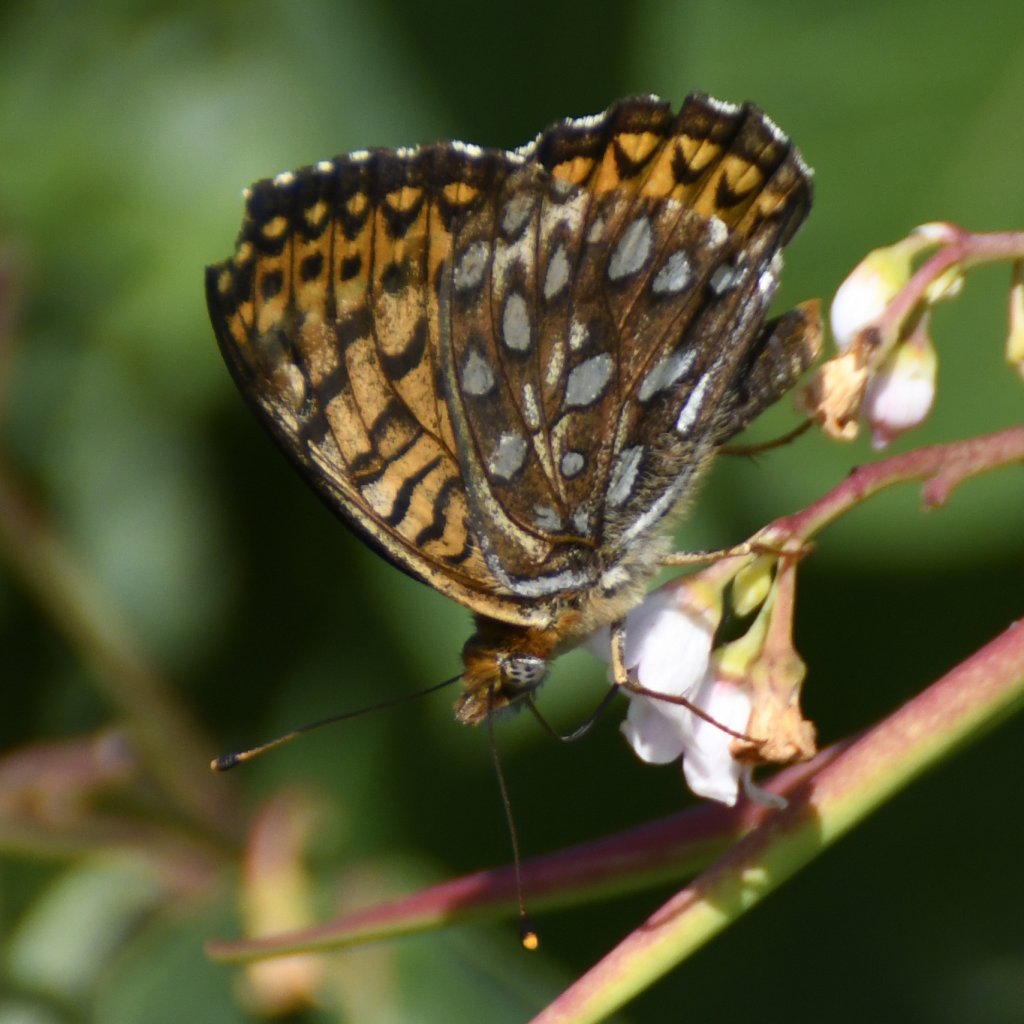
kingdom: Animalia
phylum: Arthropoda
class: Insecta
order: Lepidoptera
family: Nymphalidae
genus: Speyeria
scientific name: Speyeria atlantis
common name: Atlantis Fritillary
